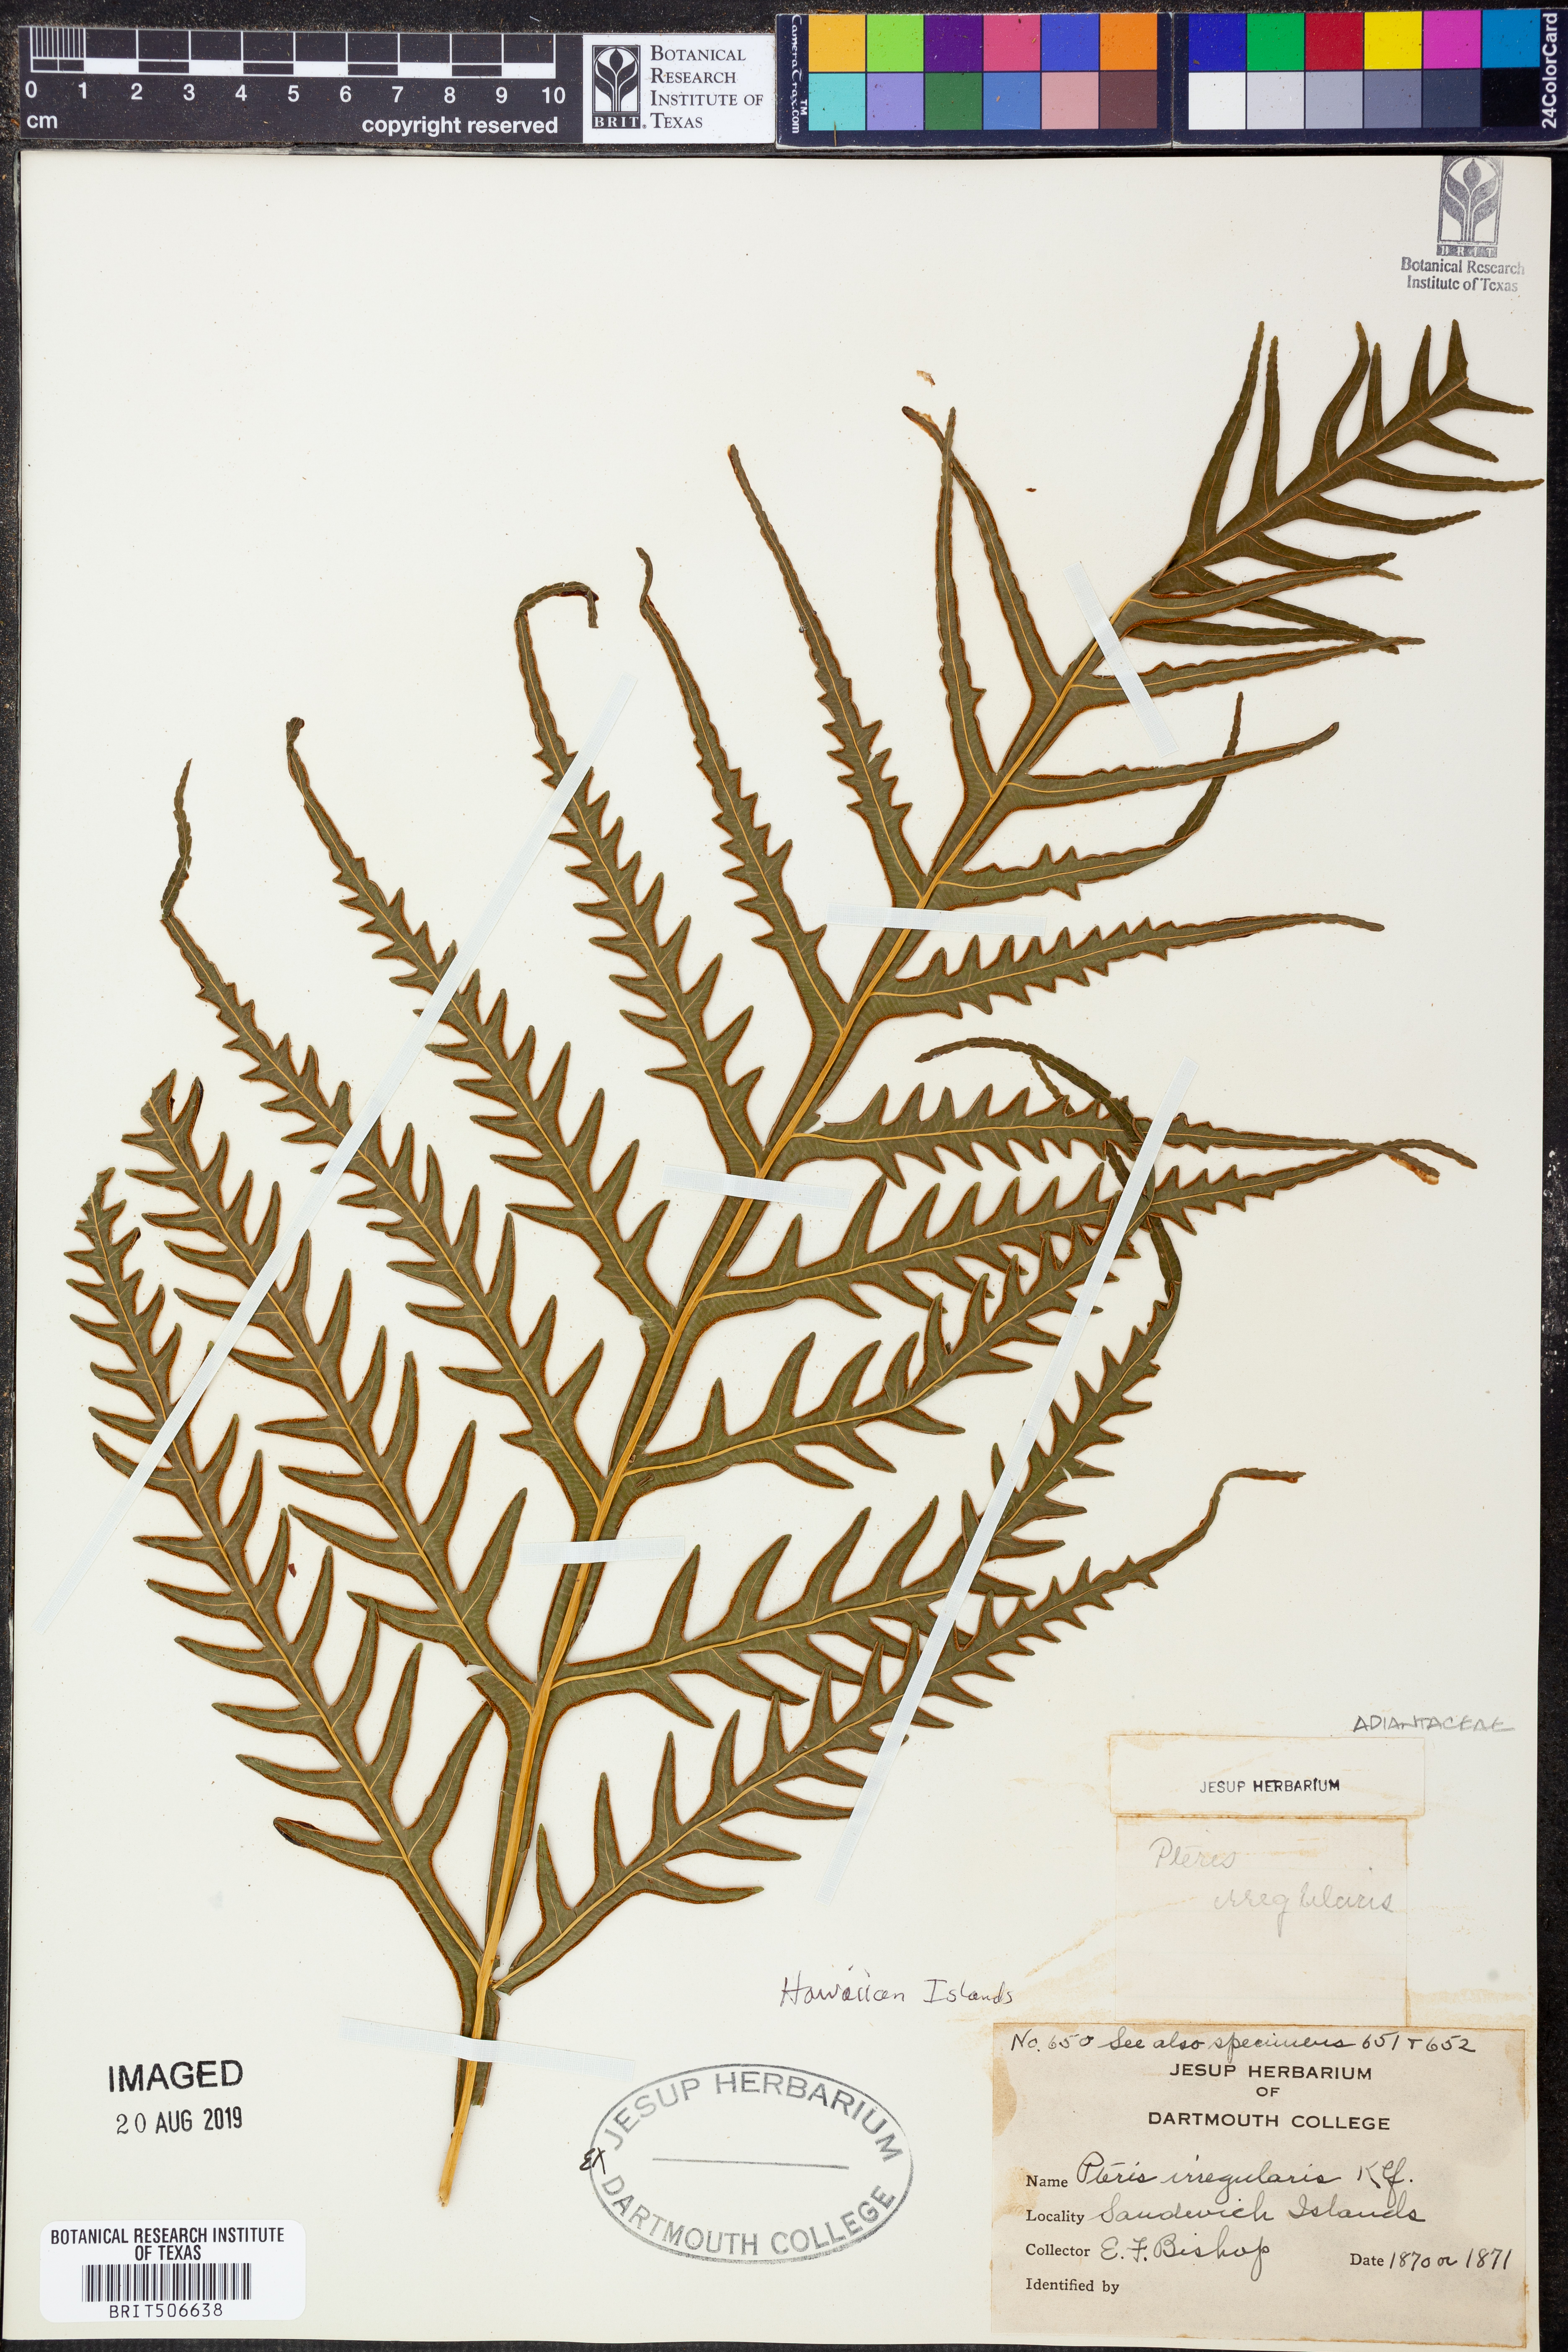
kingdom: Plantae
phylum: Tracheophyta
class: Polypodiopsida
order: Polypodiales
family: Pteridaceae
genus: Pteris
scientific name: Pteris irregularis
